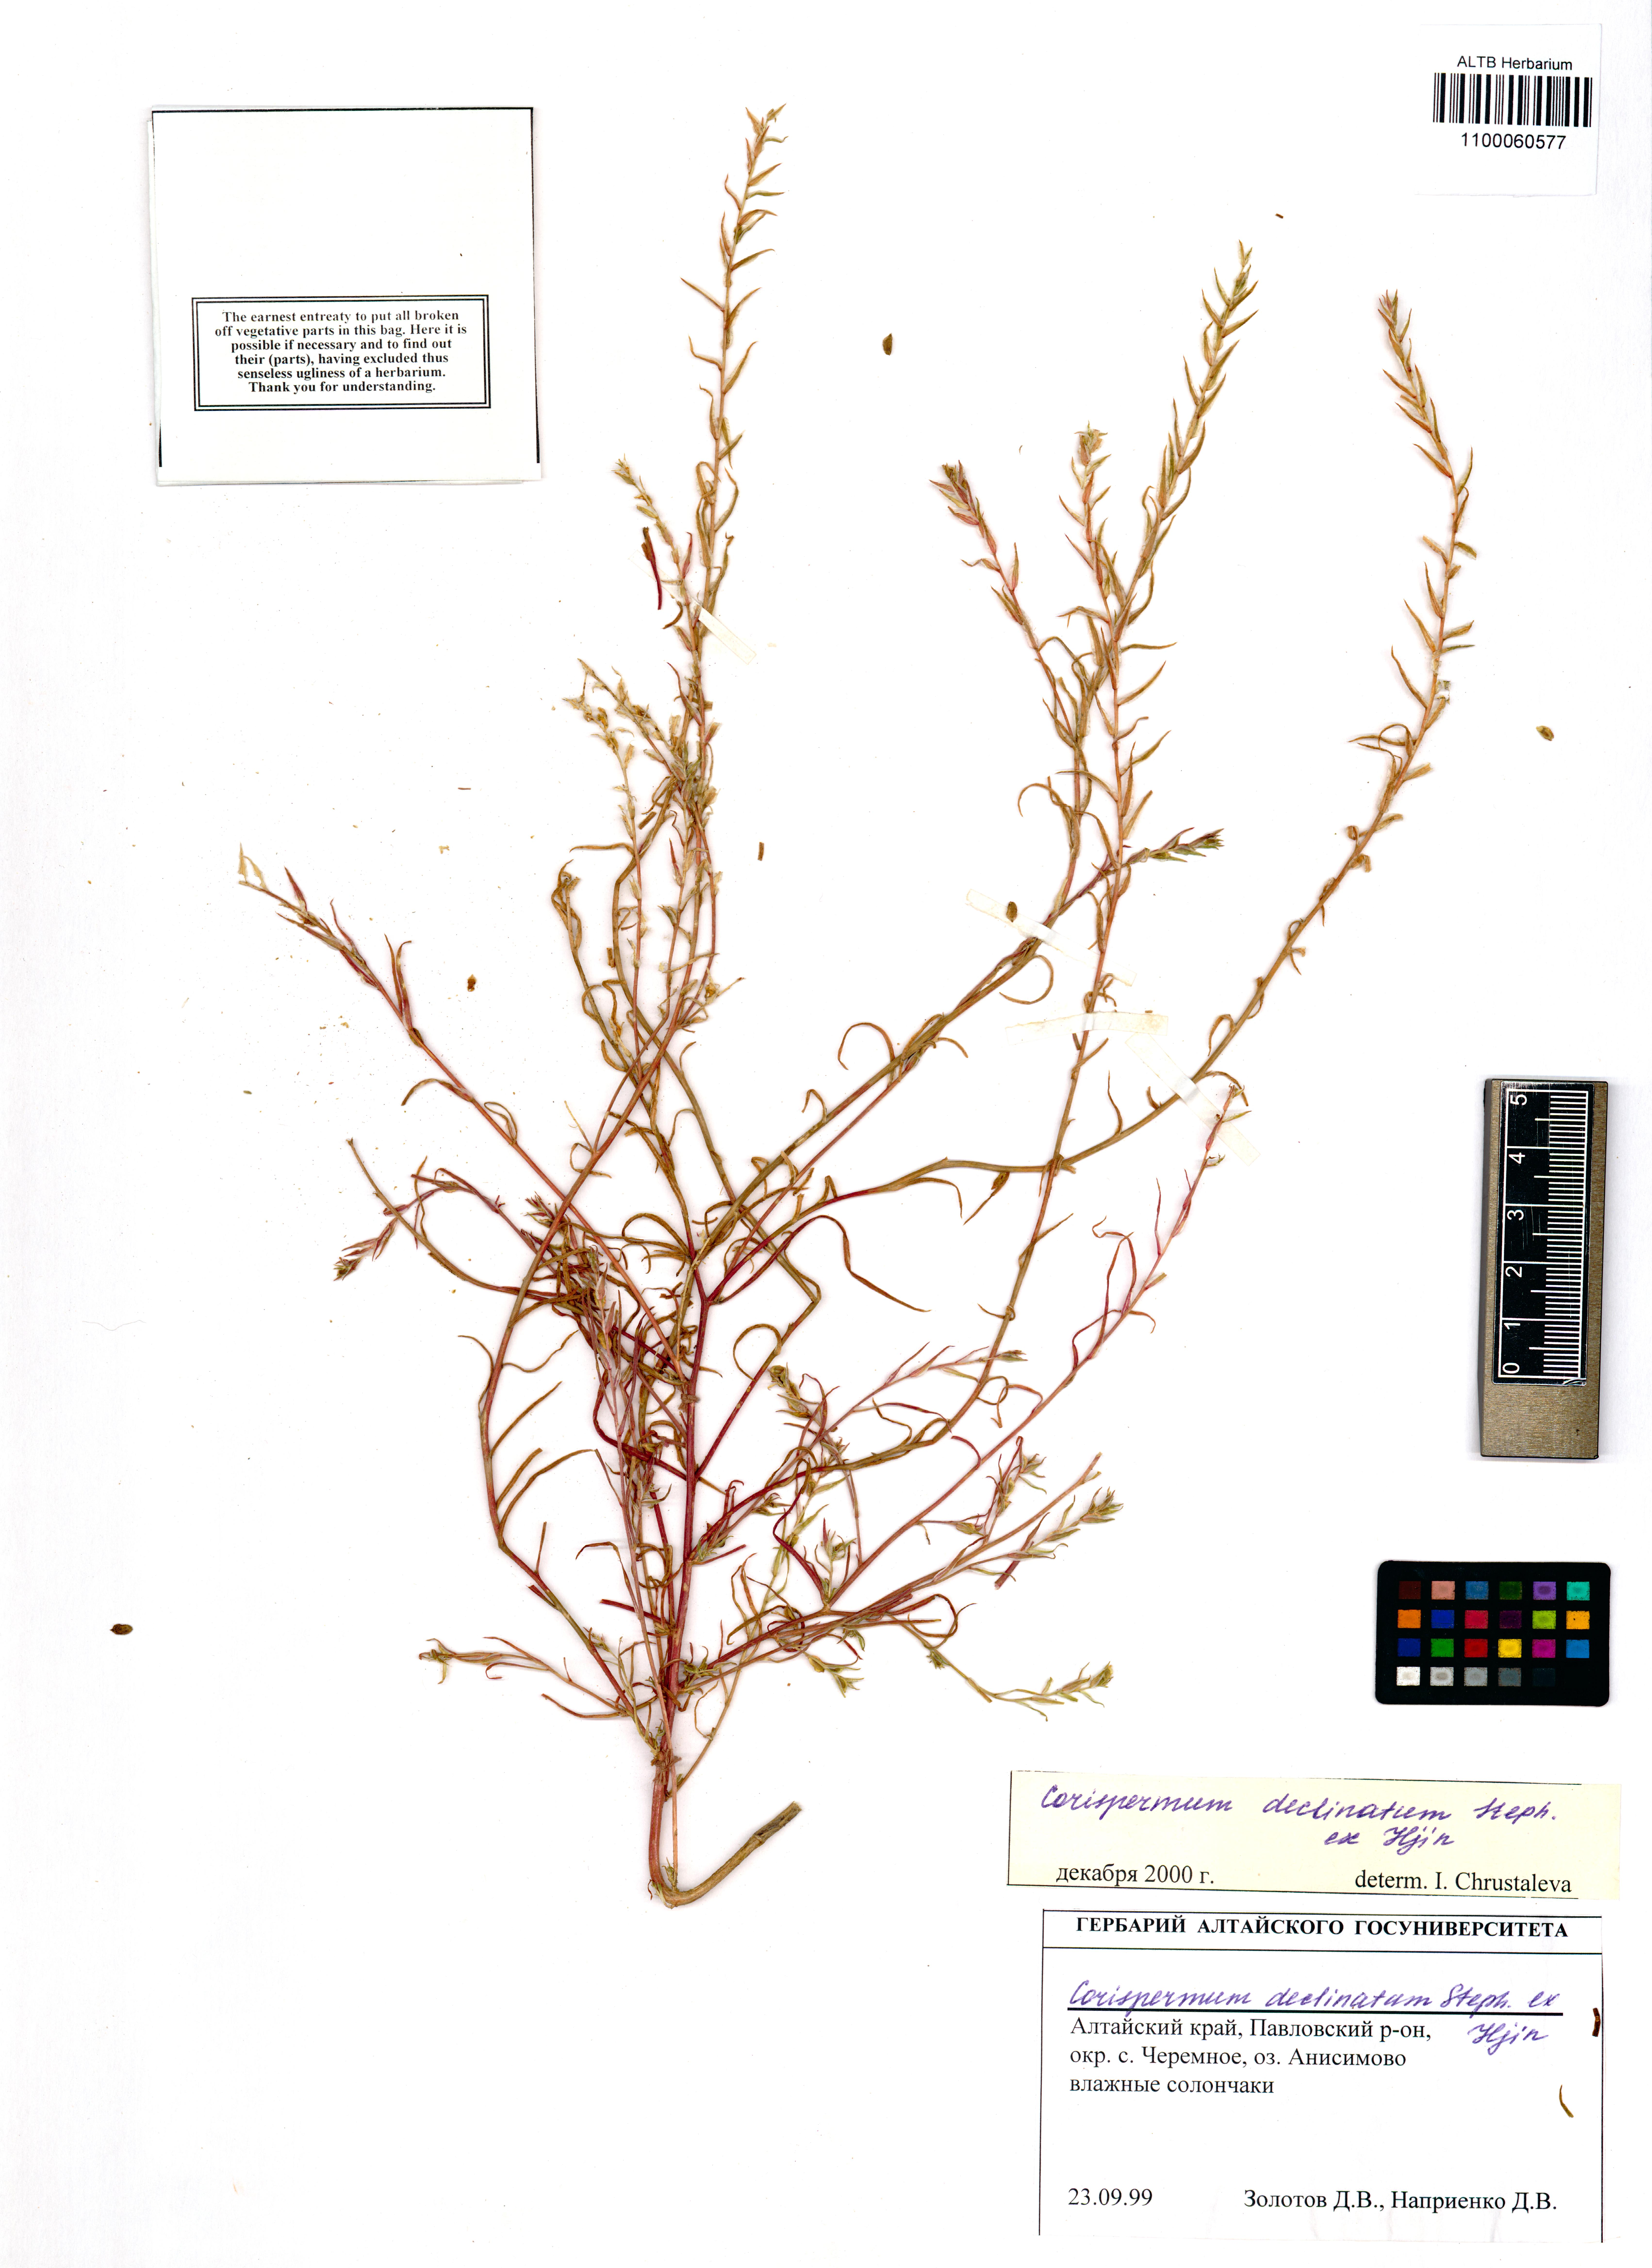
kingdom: Plantae
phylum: Tracheophyta
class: Magnoliopsida
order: Caryophyllales
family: Amaranthaceae
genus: Corispermum
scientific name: Corispermum declinatum
